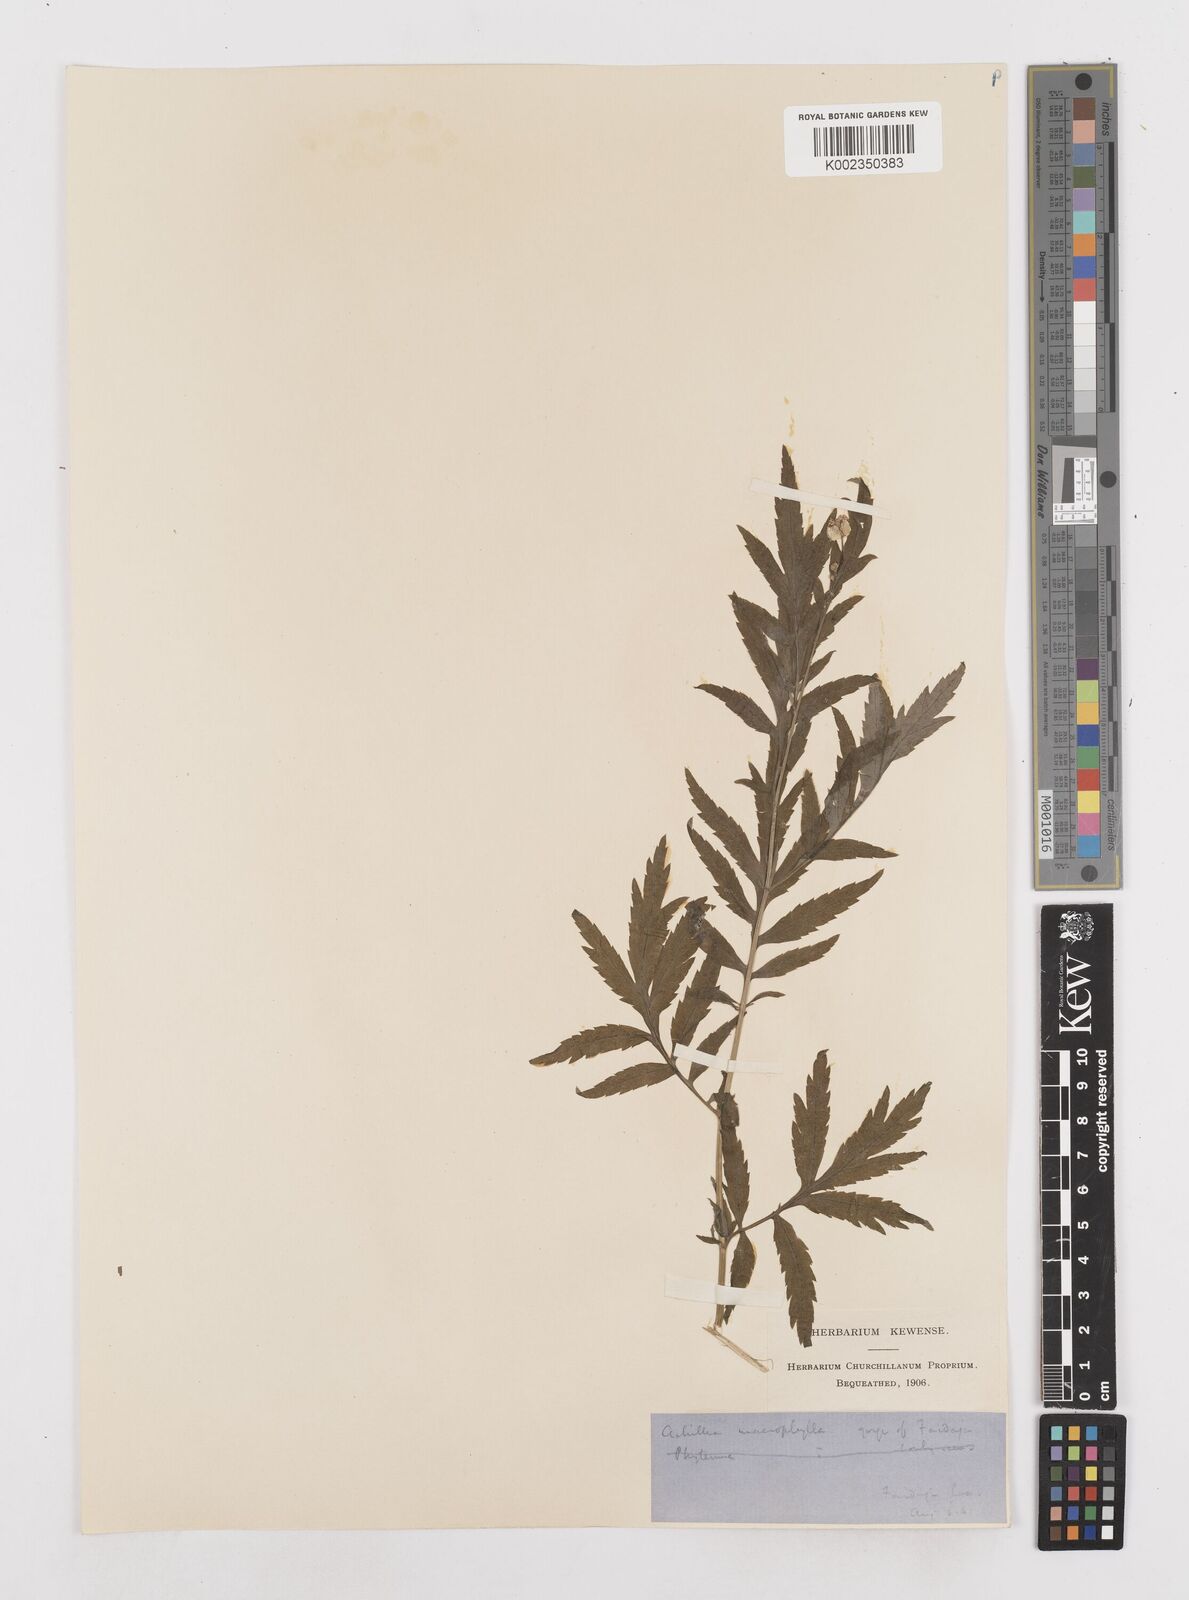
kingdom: Plantae
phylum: Tracheophyta
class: Magnoliopsida
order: Asterales
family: Asteraceae
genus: Achillea
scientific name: Achillea macrophylla
